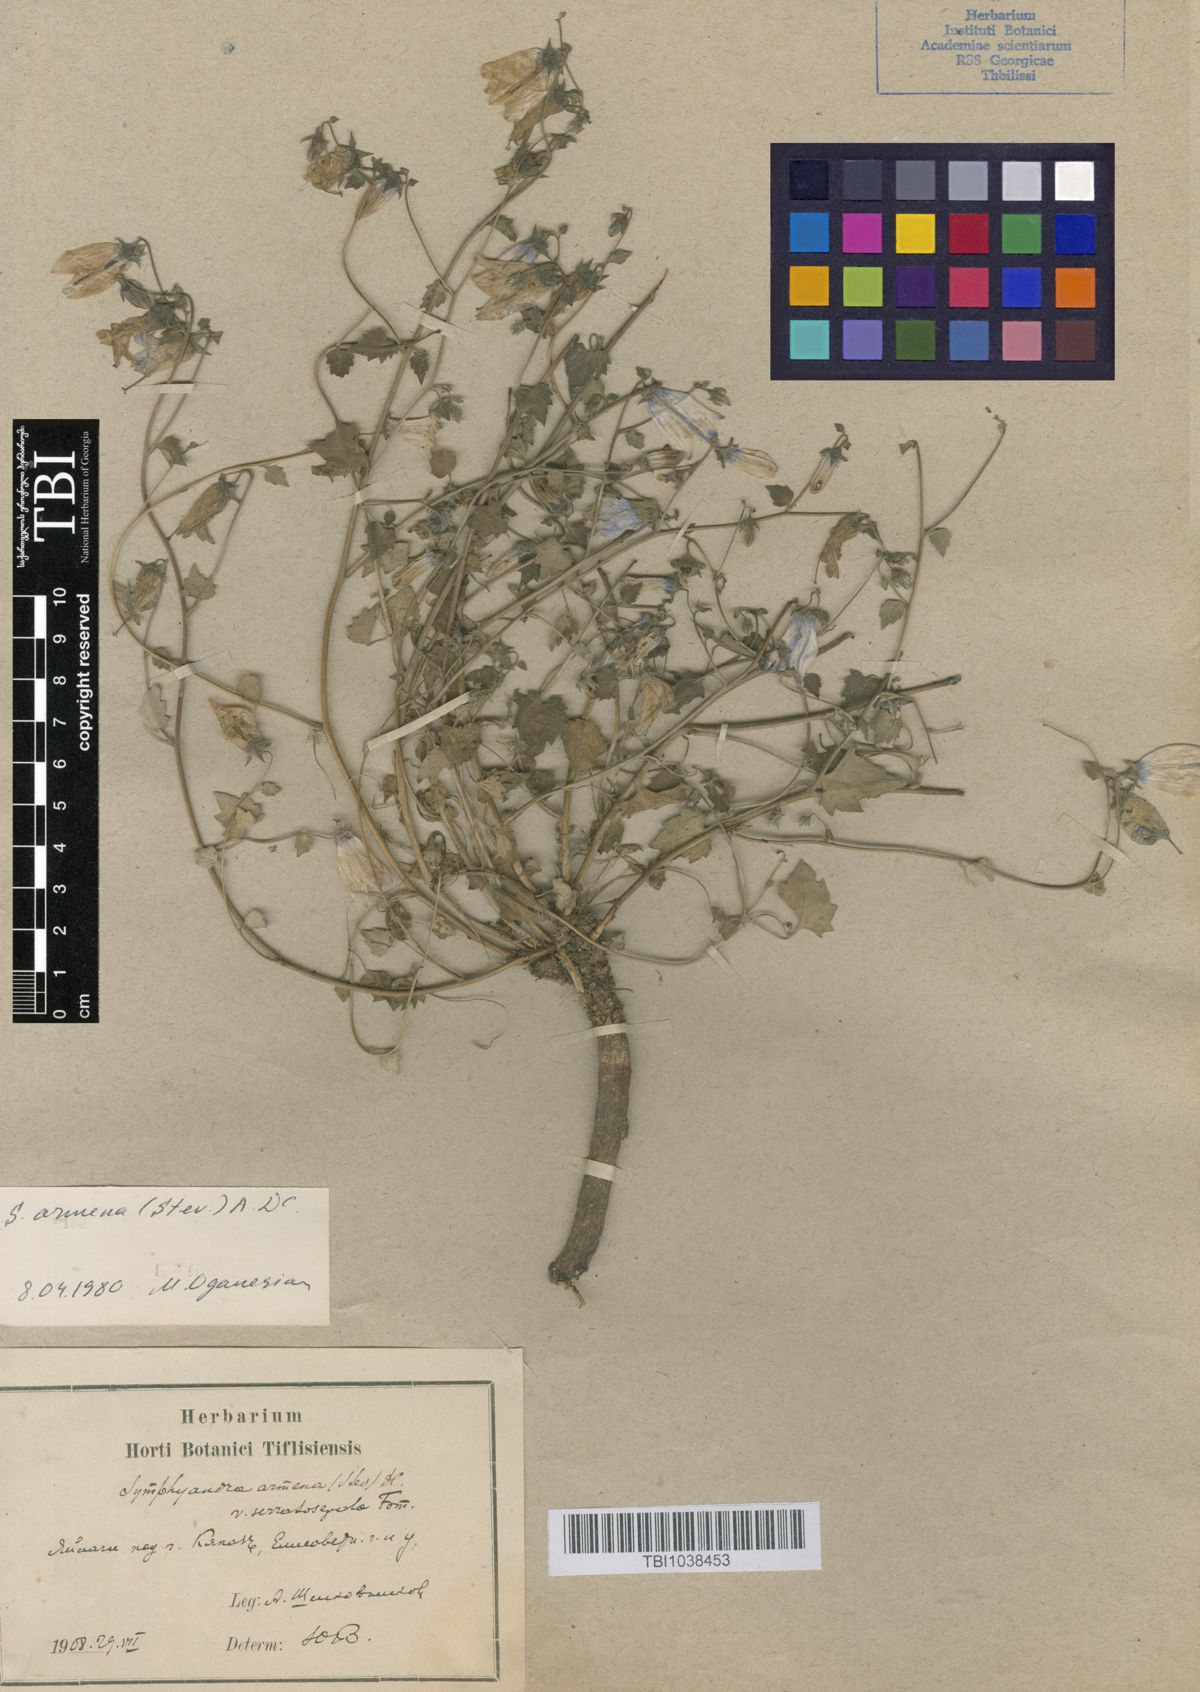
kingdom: Plantae
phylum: Tracheophyta
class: Magnoliopsida
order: Asterales
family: Campanulaceae
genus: Campanula
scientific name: Campanula armena
